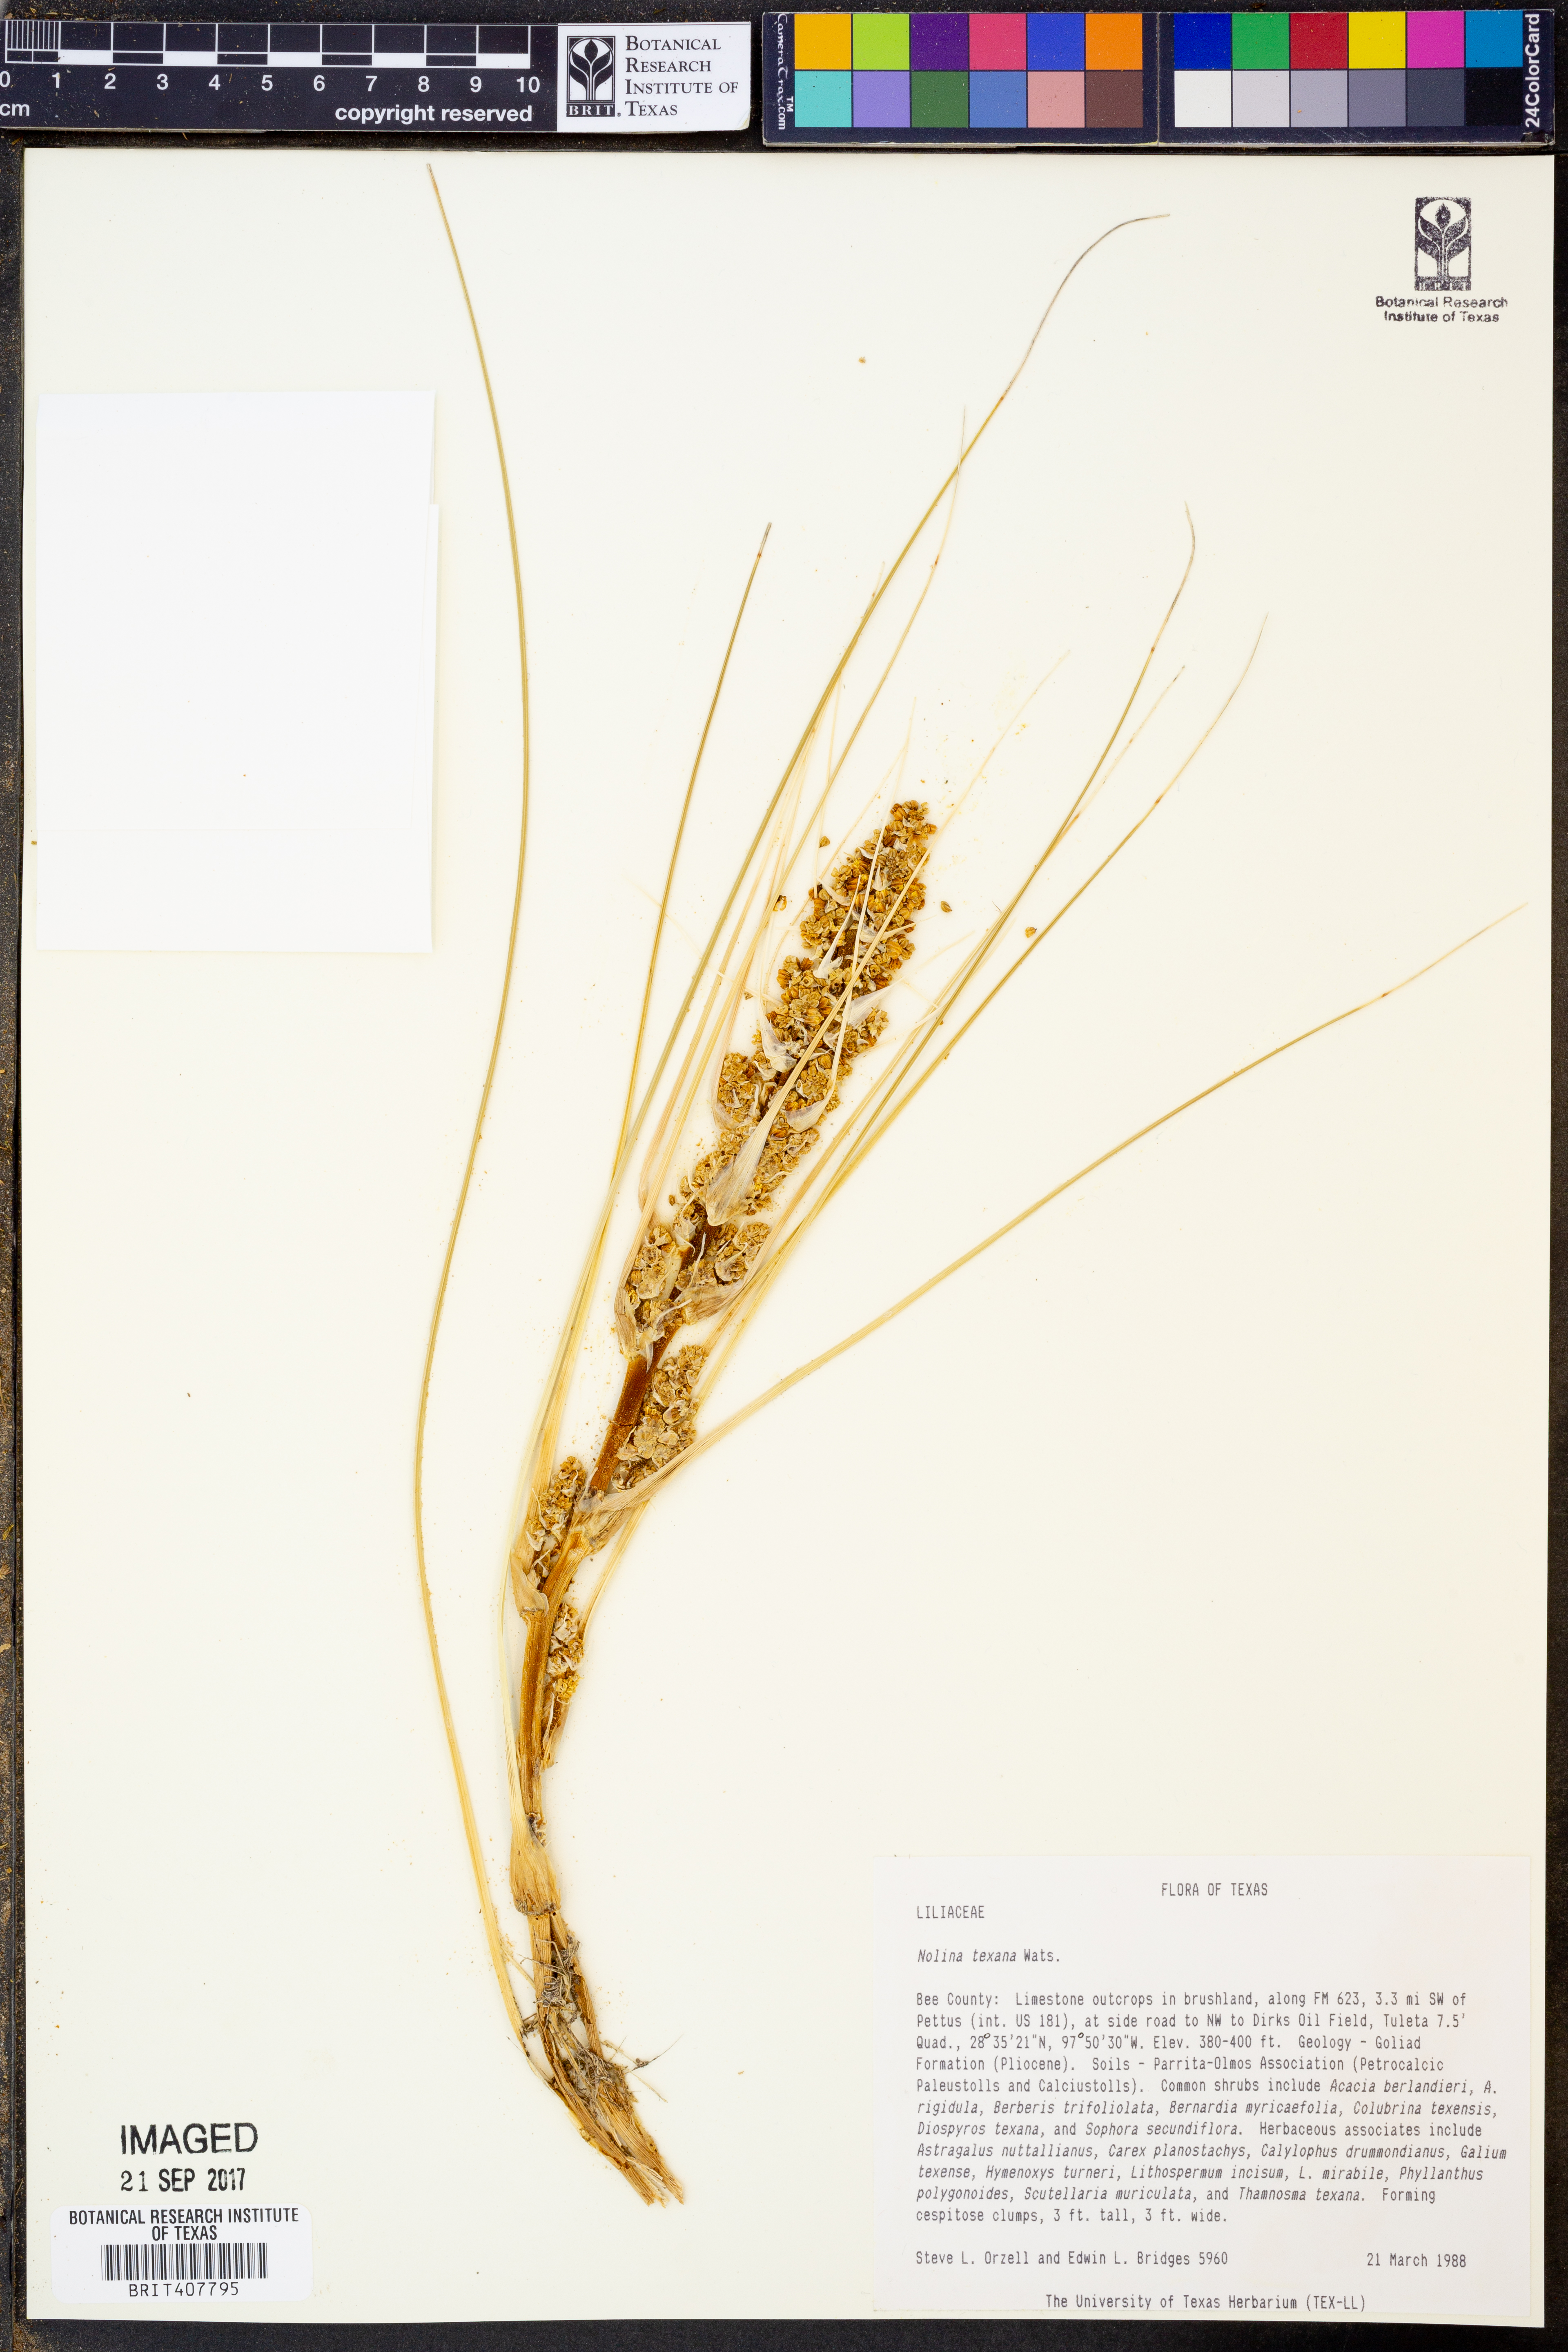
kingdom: Plantae
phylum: Tracheophyta
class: Liliopsida
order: Asparagales
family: Asparagaceae
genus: Nolina
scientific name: Nolina texana
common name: Texas sacahuiste
